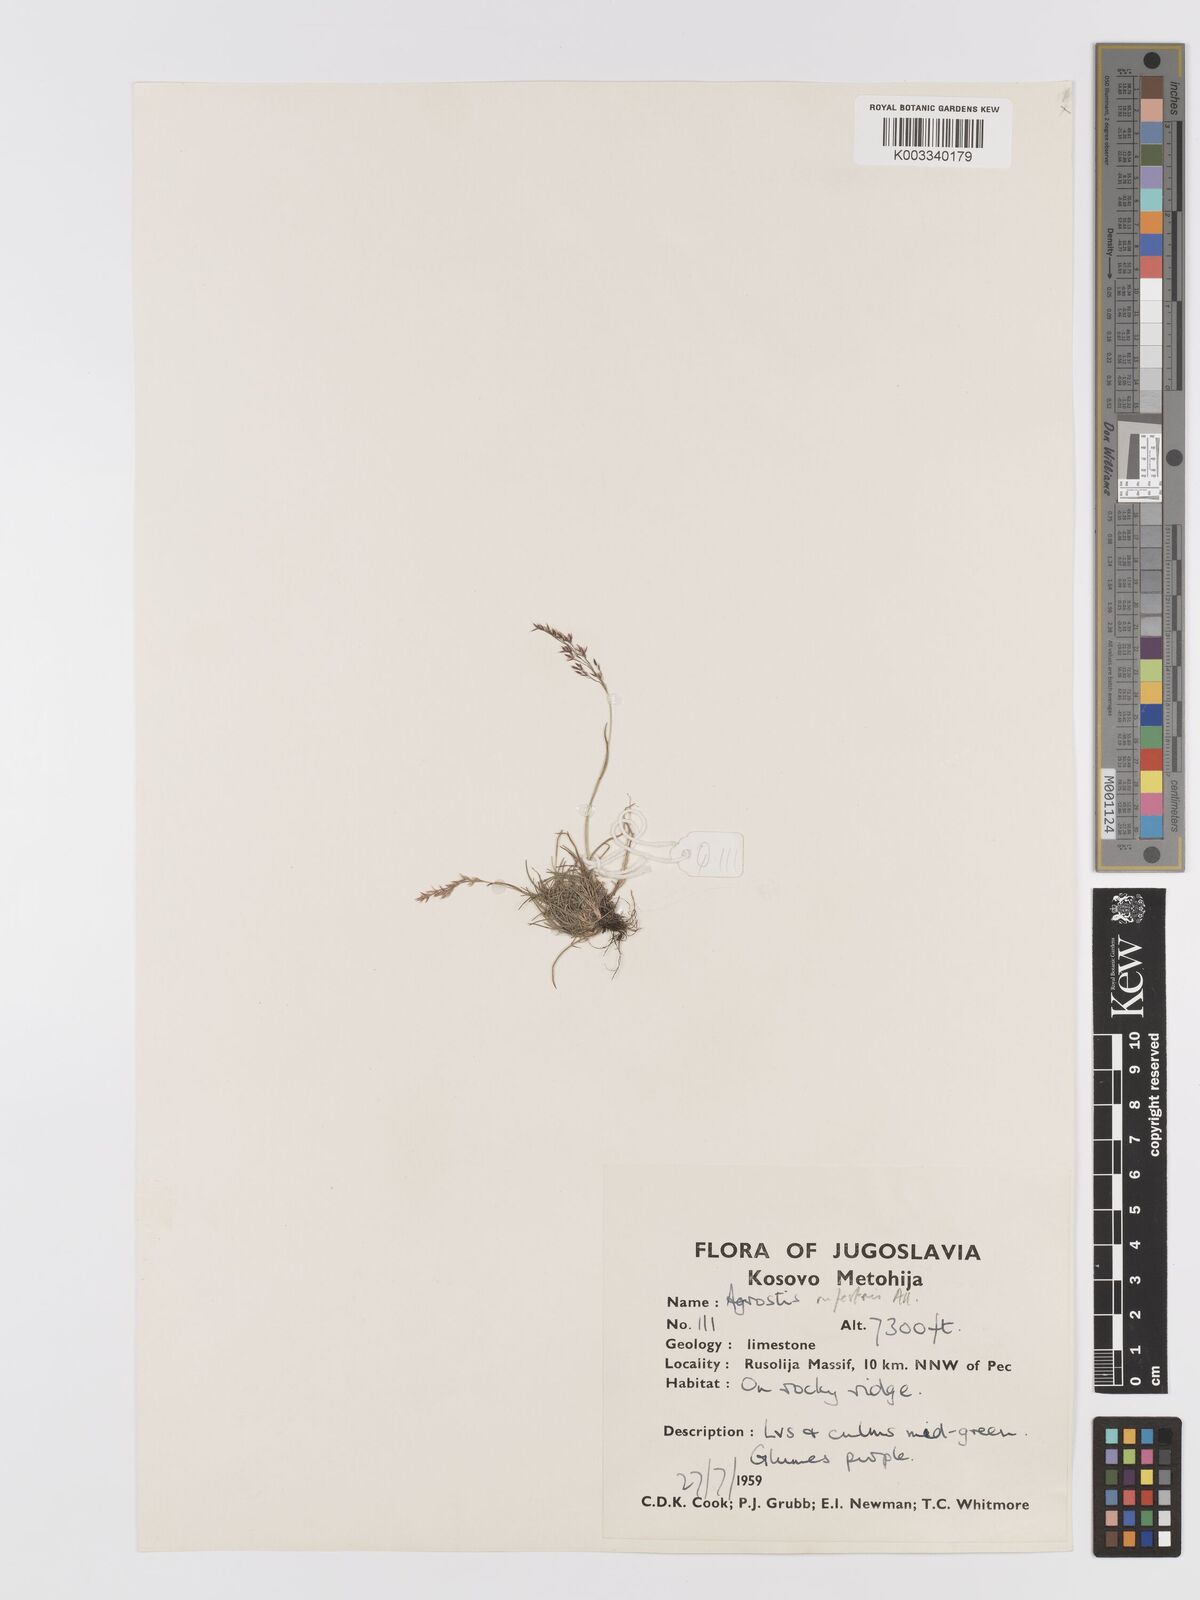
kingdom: Plantae
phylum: Tracheophyta
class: Liliopsida
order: Poales
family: Poaceae
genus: Agrostis
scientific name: Agrostis rupestris
